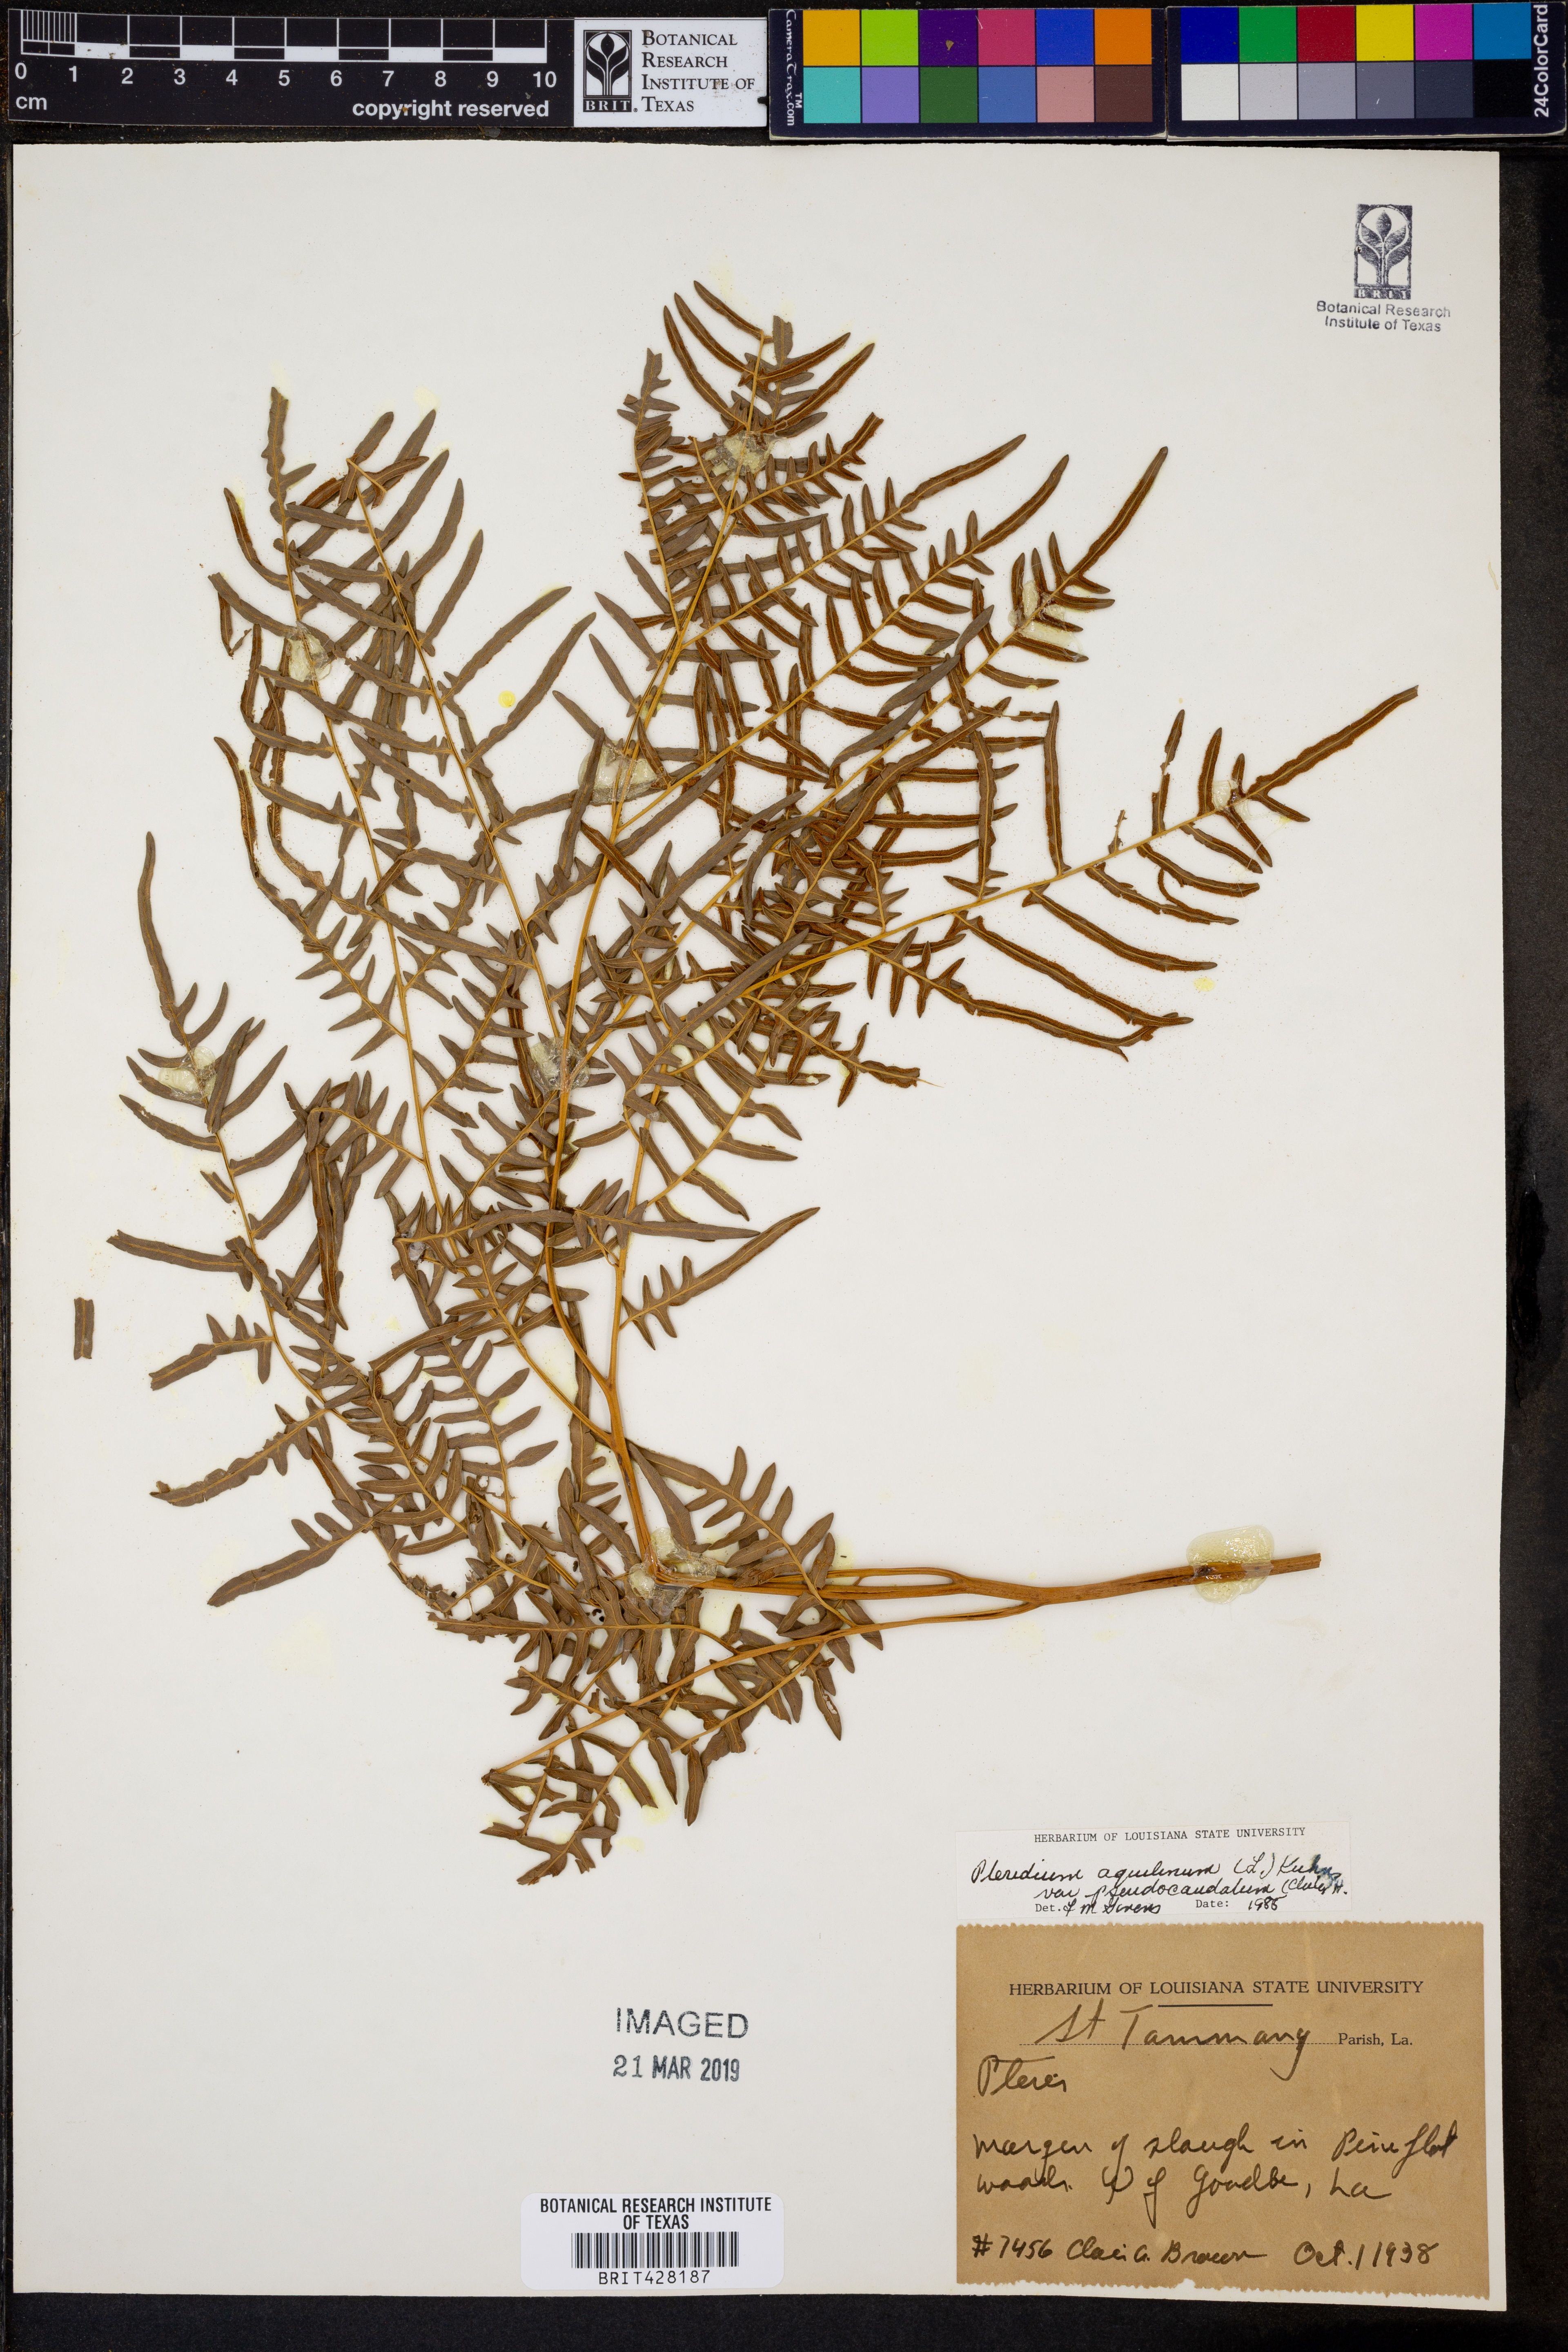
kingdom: Plantae
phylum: Tracheophyta
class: Polypodiopsida
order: Polypodiales
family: Dennstaedtiaceae
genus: Pteridium
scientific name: Pteridium aquilinum
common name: Bracken
